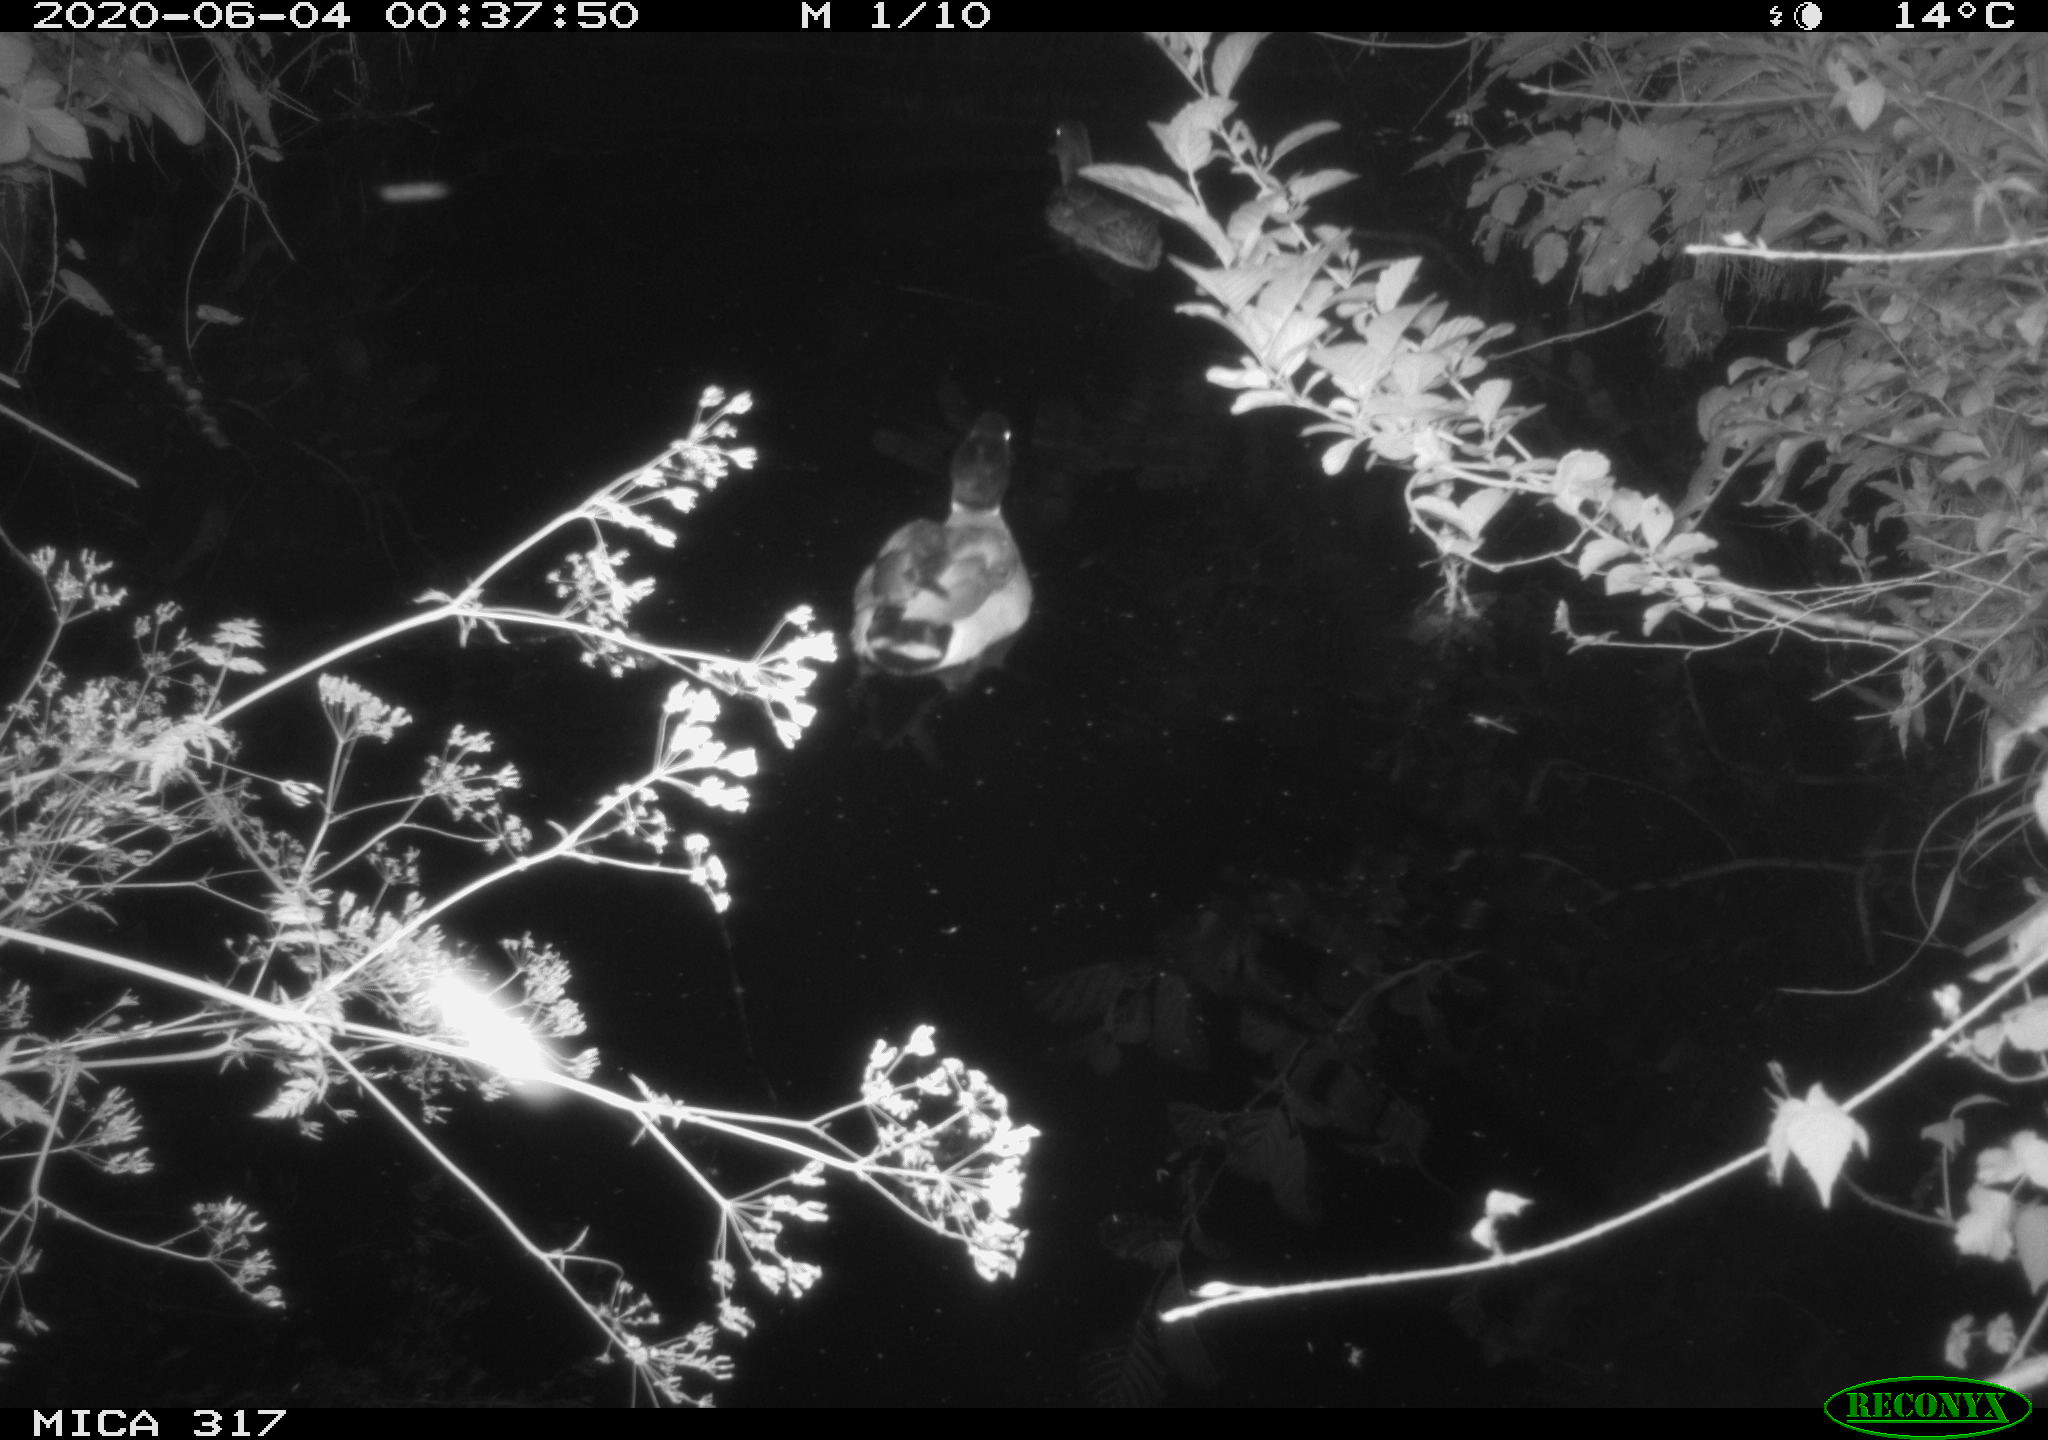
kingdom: Animalia
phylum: Chordata
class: Aves
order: Anseriformes
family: Anatidae
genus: Anas
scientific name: Anas platyrhynchos
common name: Mallard
